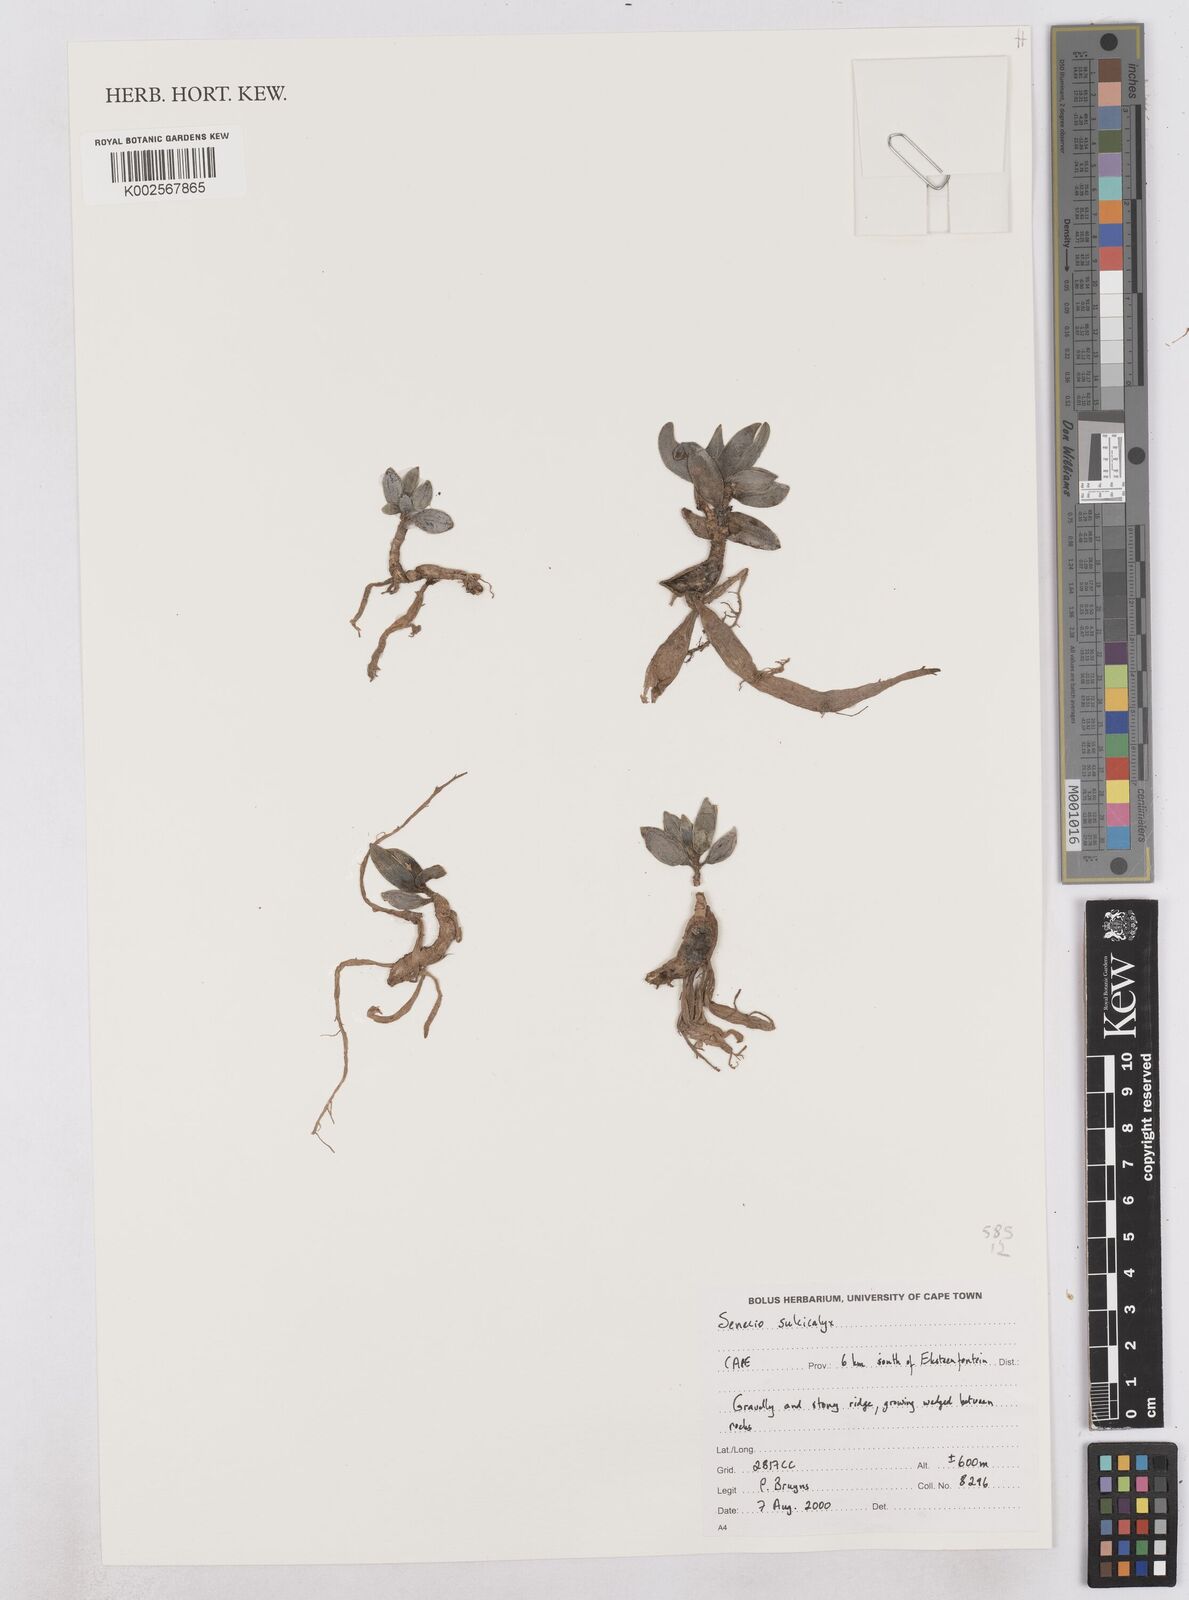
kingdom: Plantae
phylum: Tracheophyta
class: Magnoliopsida
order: Asterales
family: Asteraceae
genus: Curio
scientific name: Curio sulcicalyx
